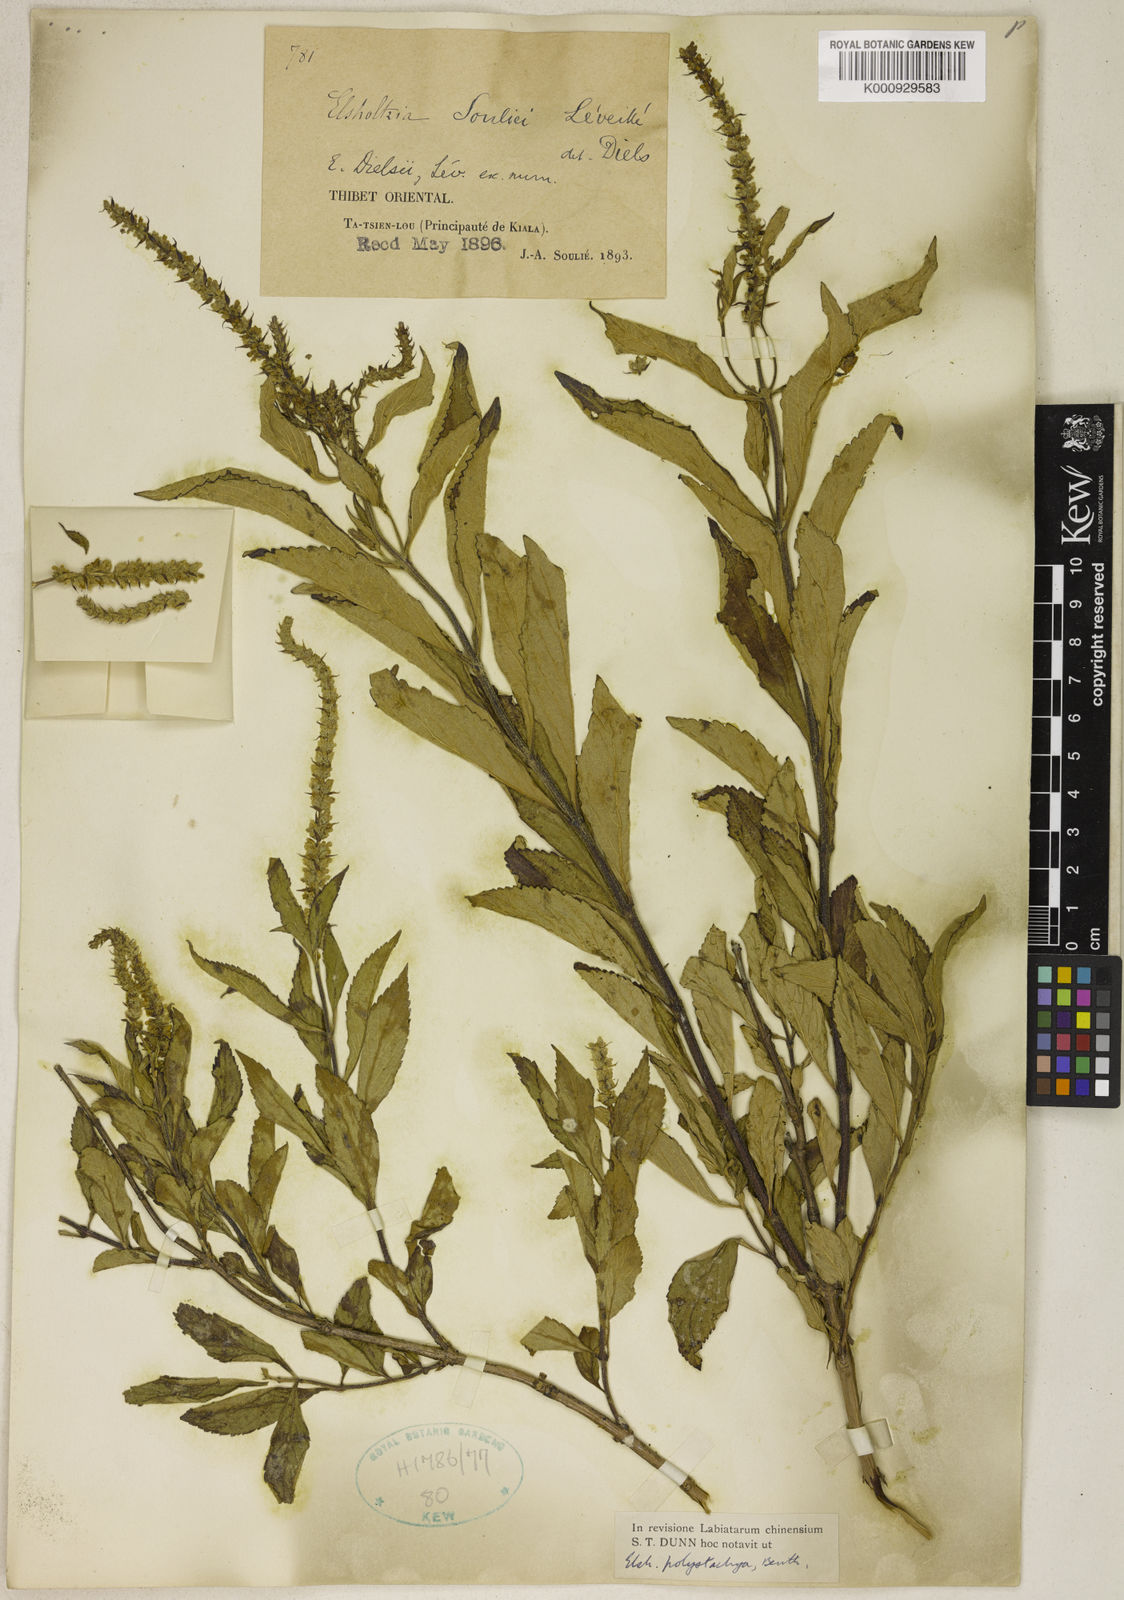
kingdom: Plantae
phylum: Tracheophyta
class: Magnoliopsida
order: Lamiales
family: Lamiaceae
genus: Elsholtzia
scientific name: Elsholtzia fruticosa
